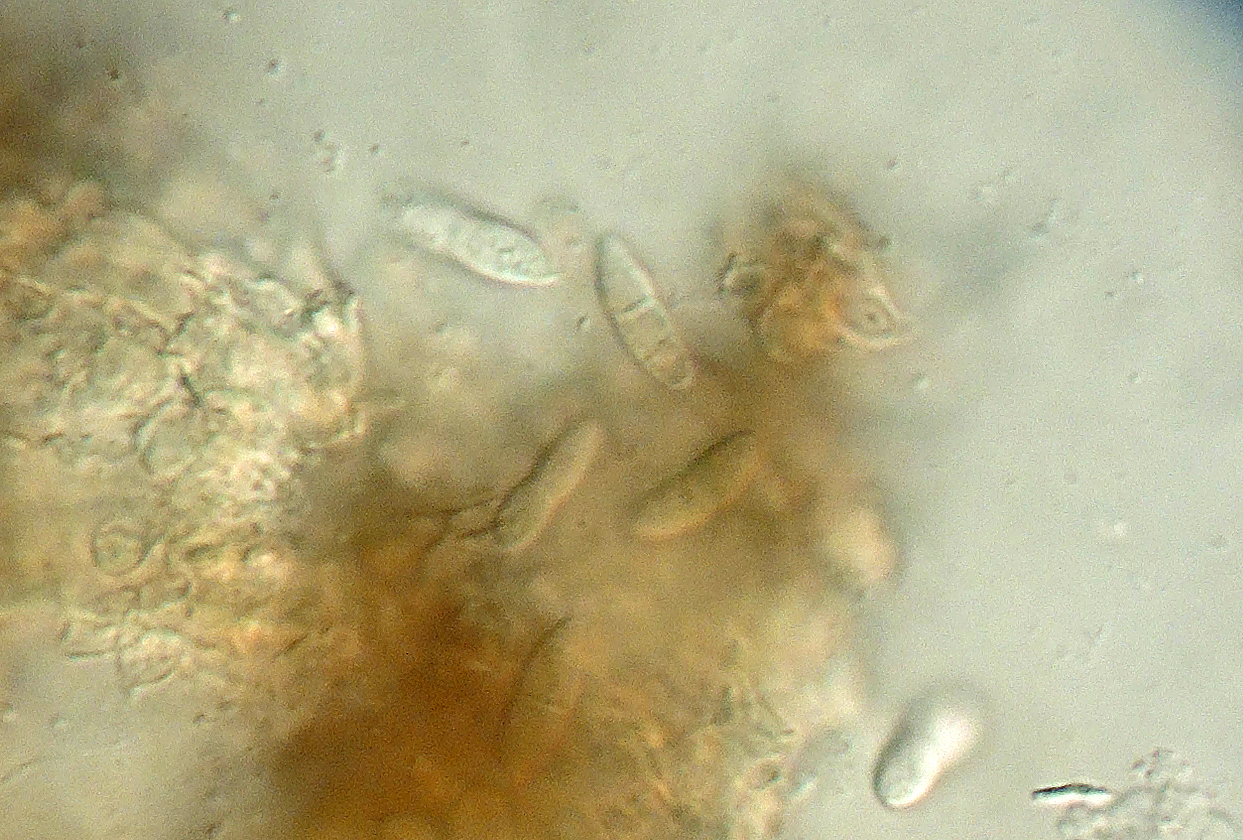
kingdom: Fungi
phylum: Ascomycota
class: Dothideomycetes
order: Pleosporales
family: Phaeosphaeriaceae
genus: Sphaerellopsis
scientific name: Sphaerellopsis filum
